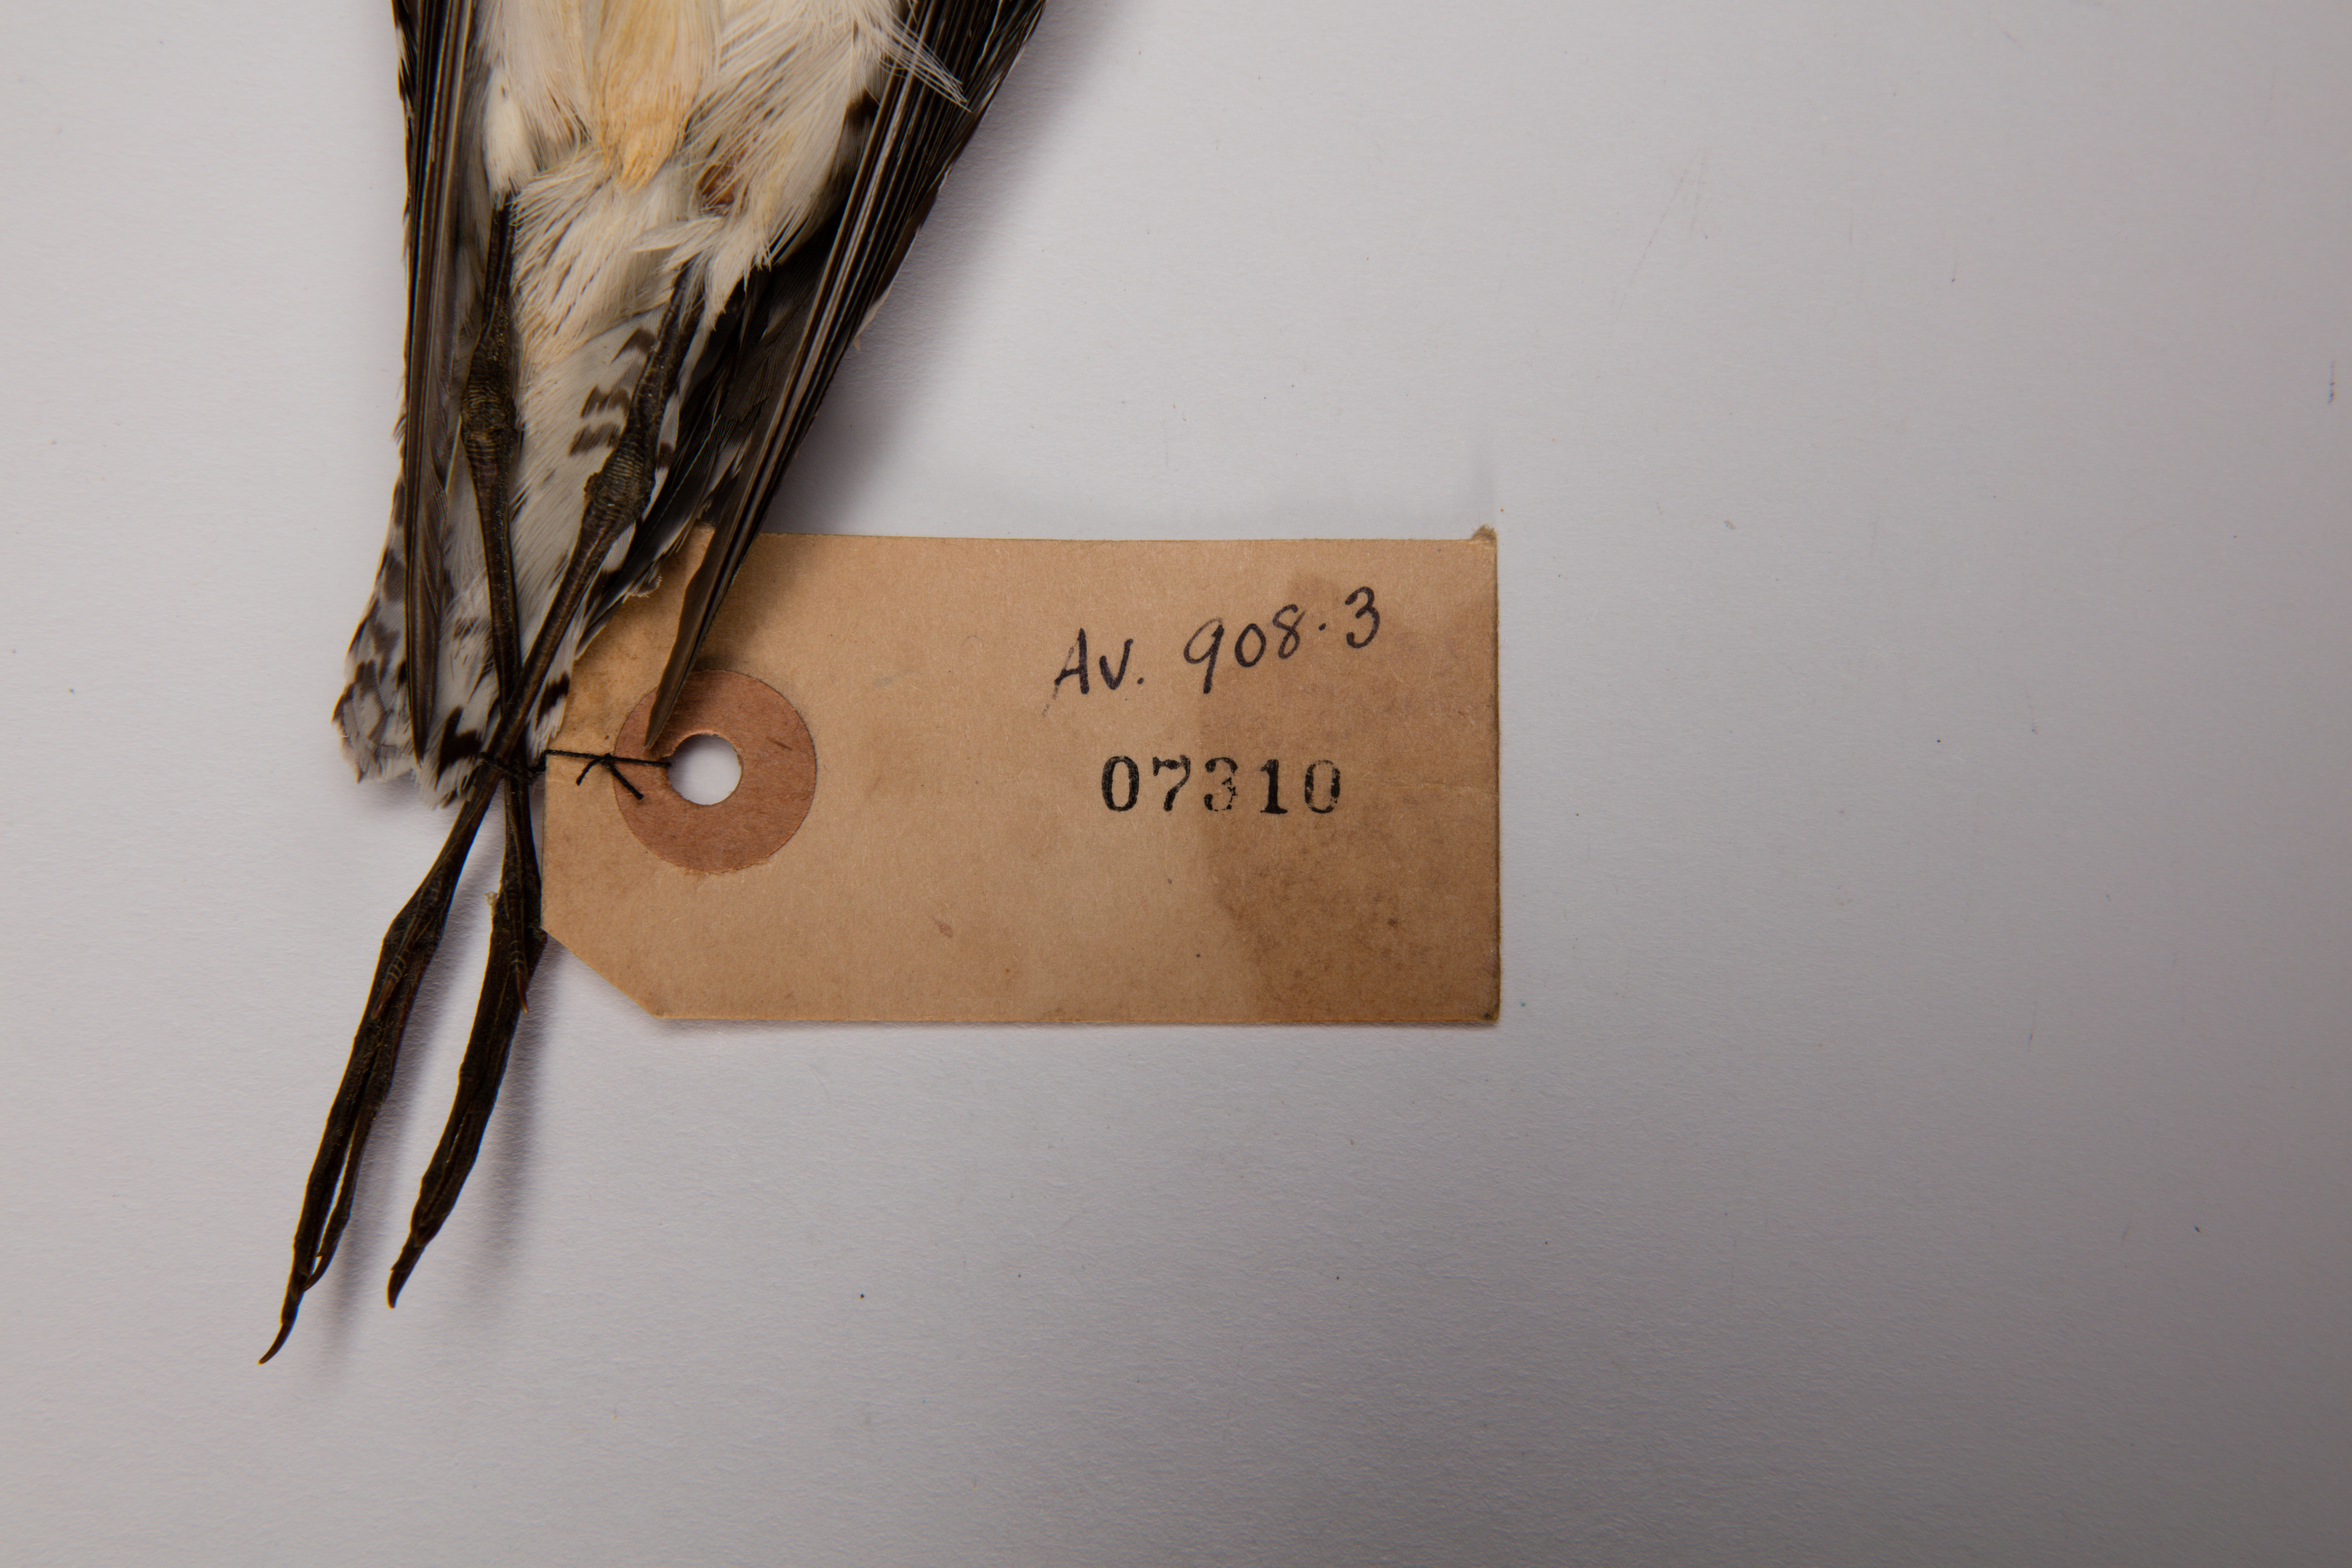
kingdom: Animalia
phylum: Chordata
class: Aves
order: Charadriiformes
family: Scolopacidae
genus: Tringa
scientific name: Tringa glareola
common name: Wood sandpiper
